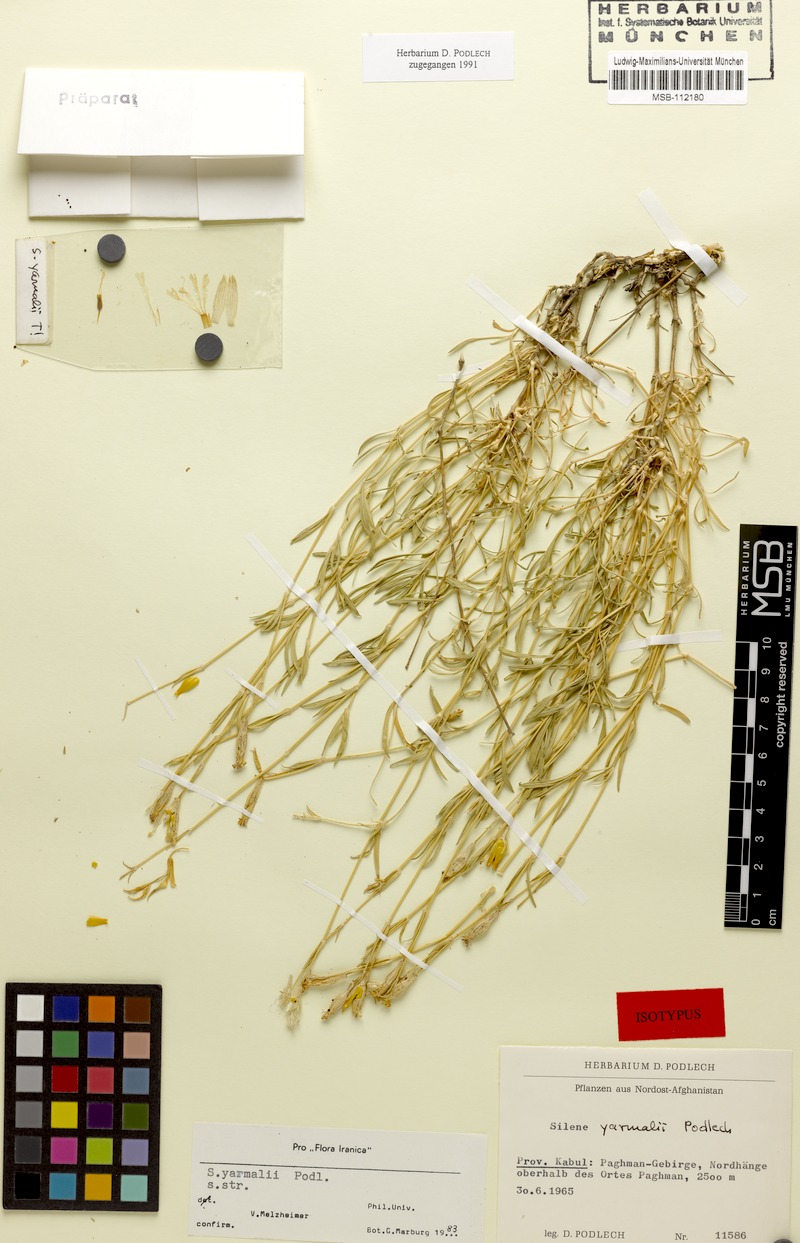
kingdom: Plantae
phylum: Tracheophyta
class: Magnoliopsida
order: Caryophyllales
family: Caryophyllaceae
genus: Silene
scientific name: Silene yarmalii
